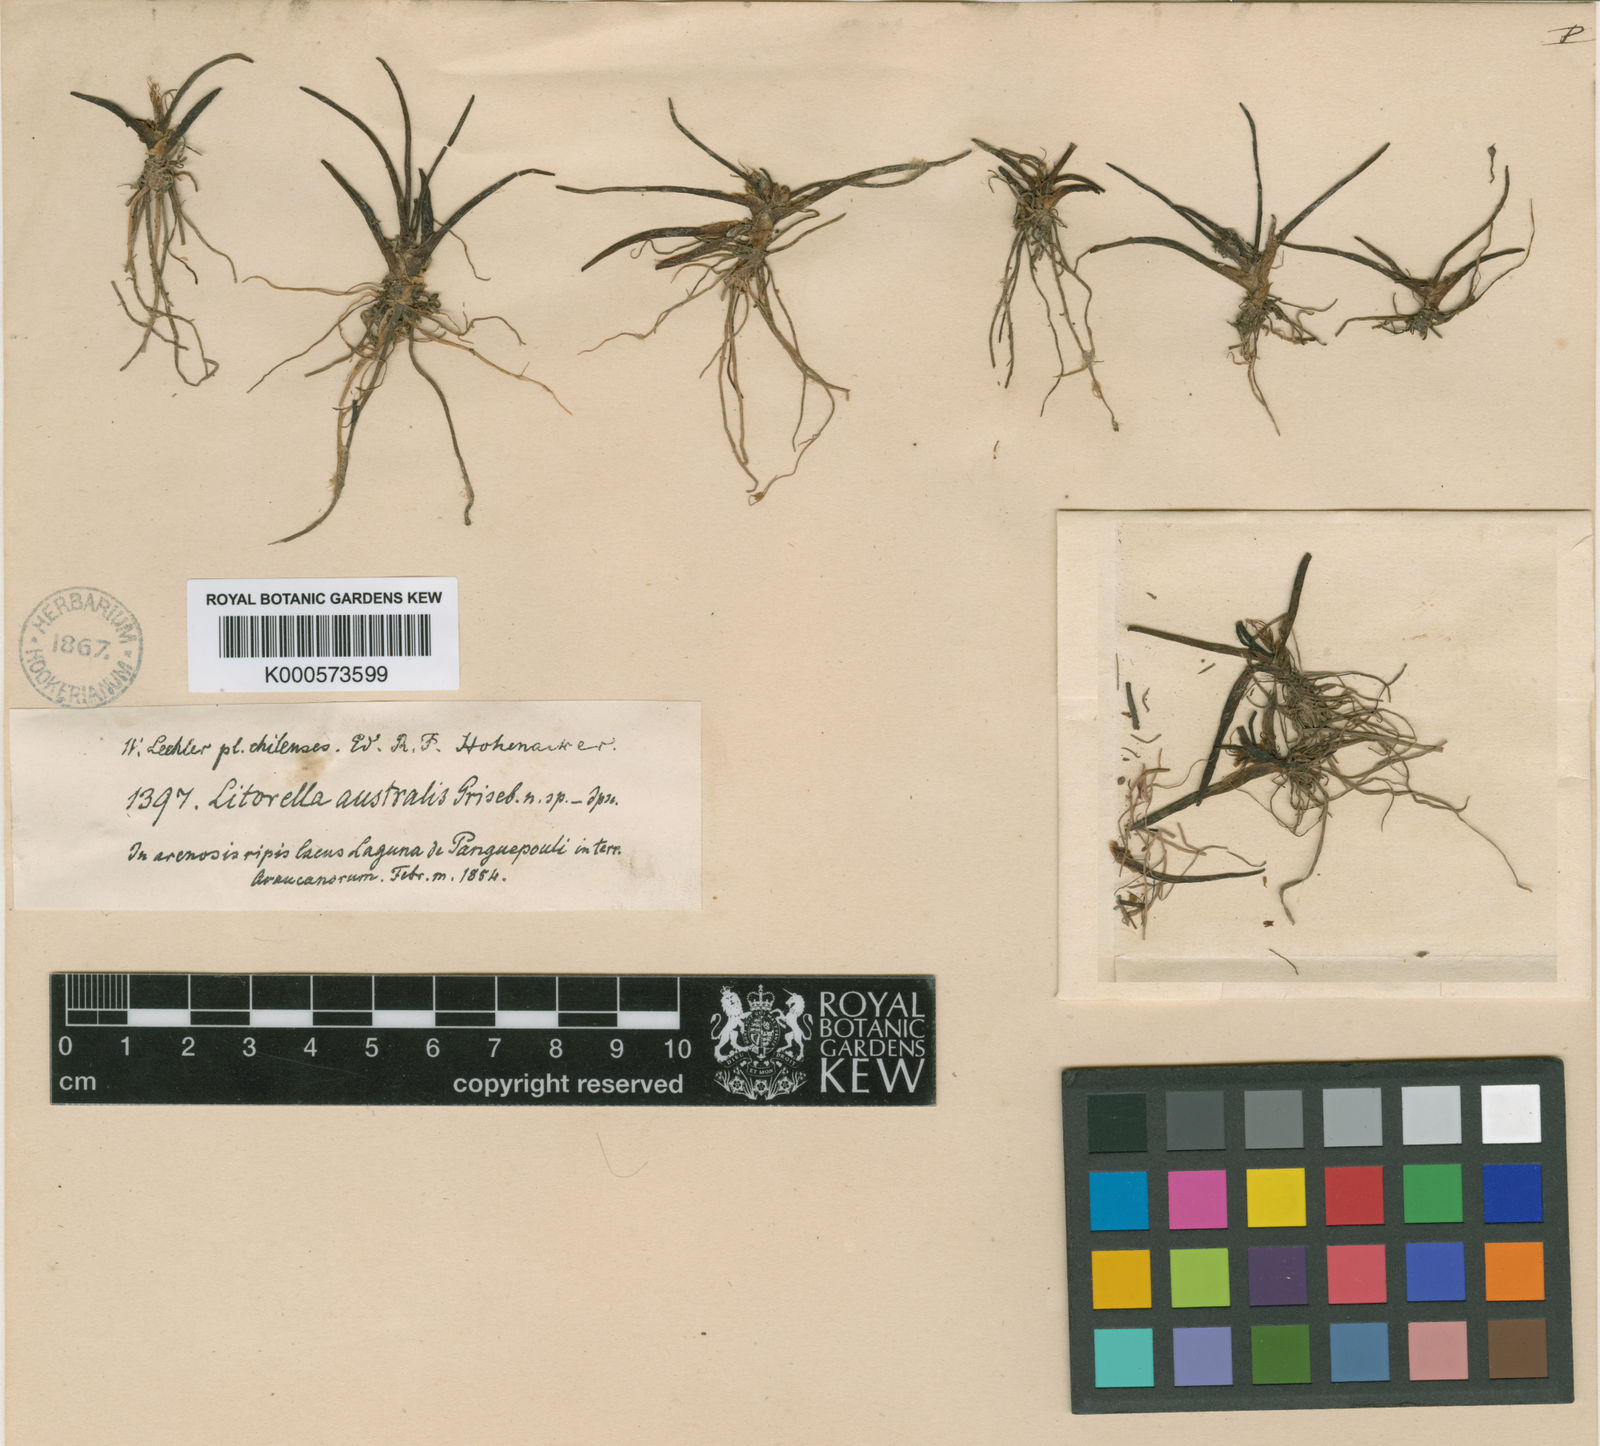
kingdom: Plantae
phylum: Tracheophyta
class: Magnoliopsida
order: Lamiales
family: Plantaginaceae
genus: Littorella
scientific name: Littorella
